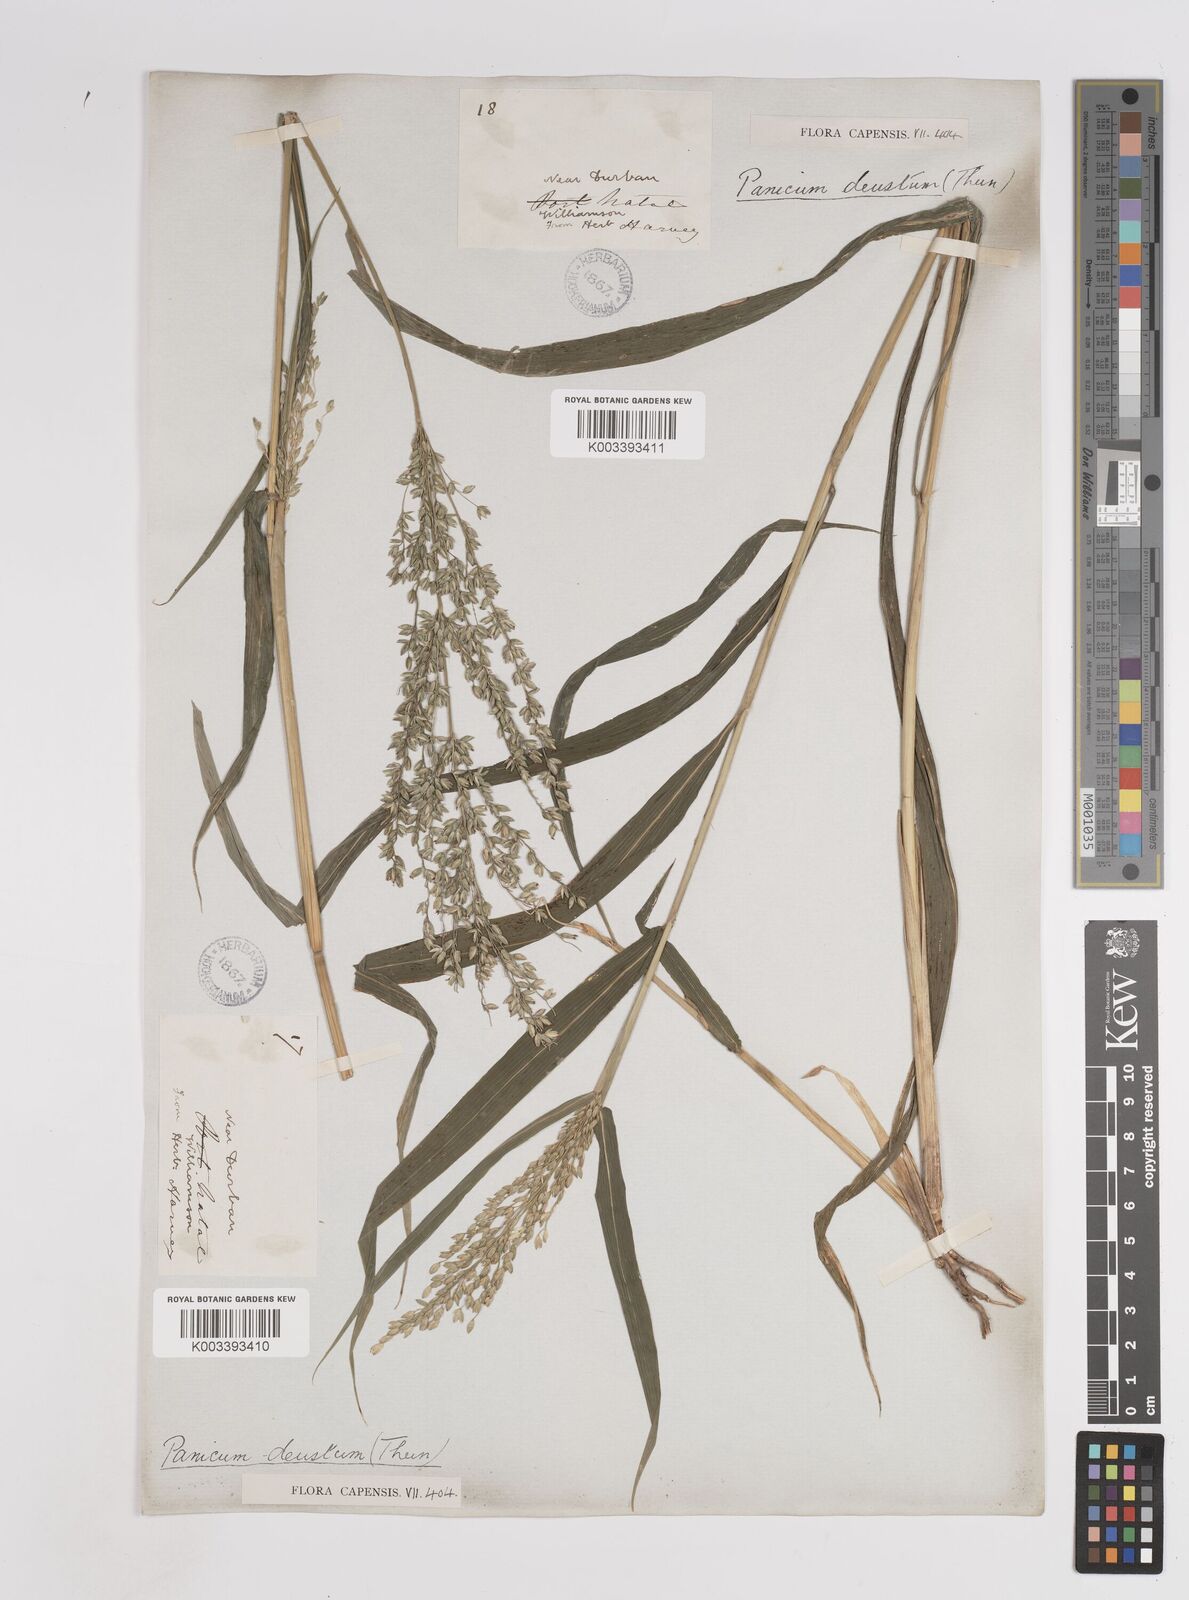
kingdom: Plantae
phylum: Tracheophyta
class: Liliopsida
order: Poales
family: Poaceae
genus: Panicum
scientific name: Panicum deustum
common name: Reed panicum
